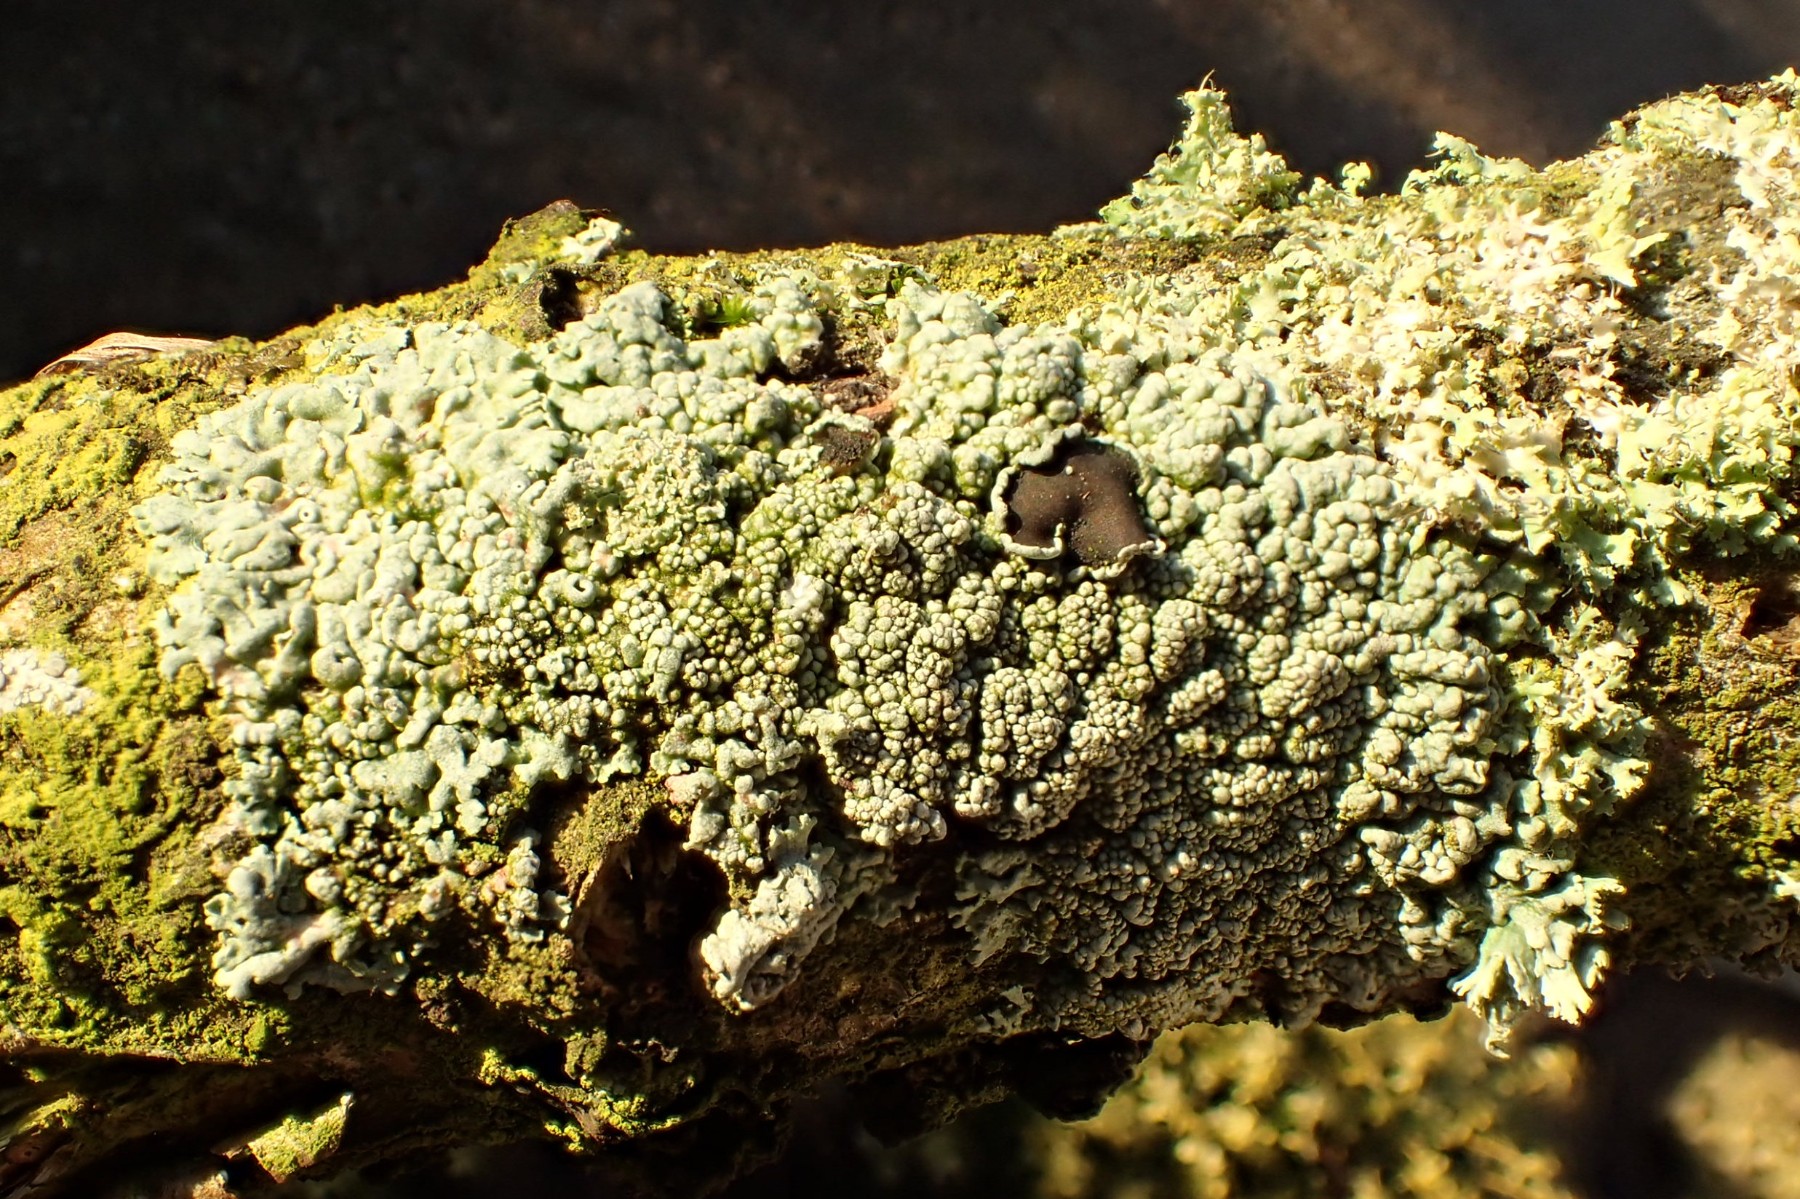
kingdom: Fungi
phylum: Ascomycota
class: Lecanoromycetes
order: Caliciales
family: Physciaceae
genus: Physcia
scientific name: Physcia stellaris
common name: stjerneformet rosetlav
